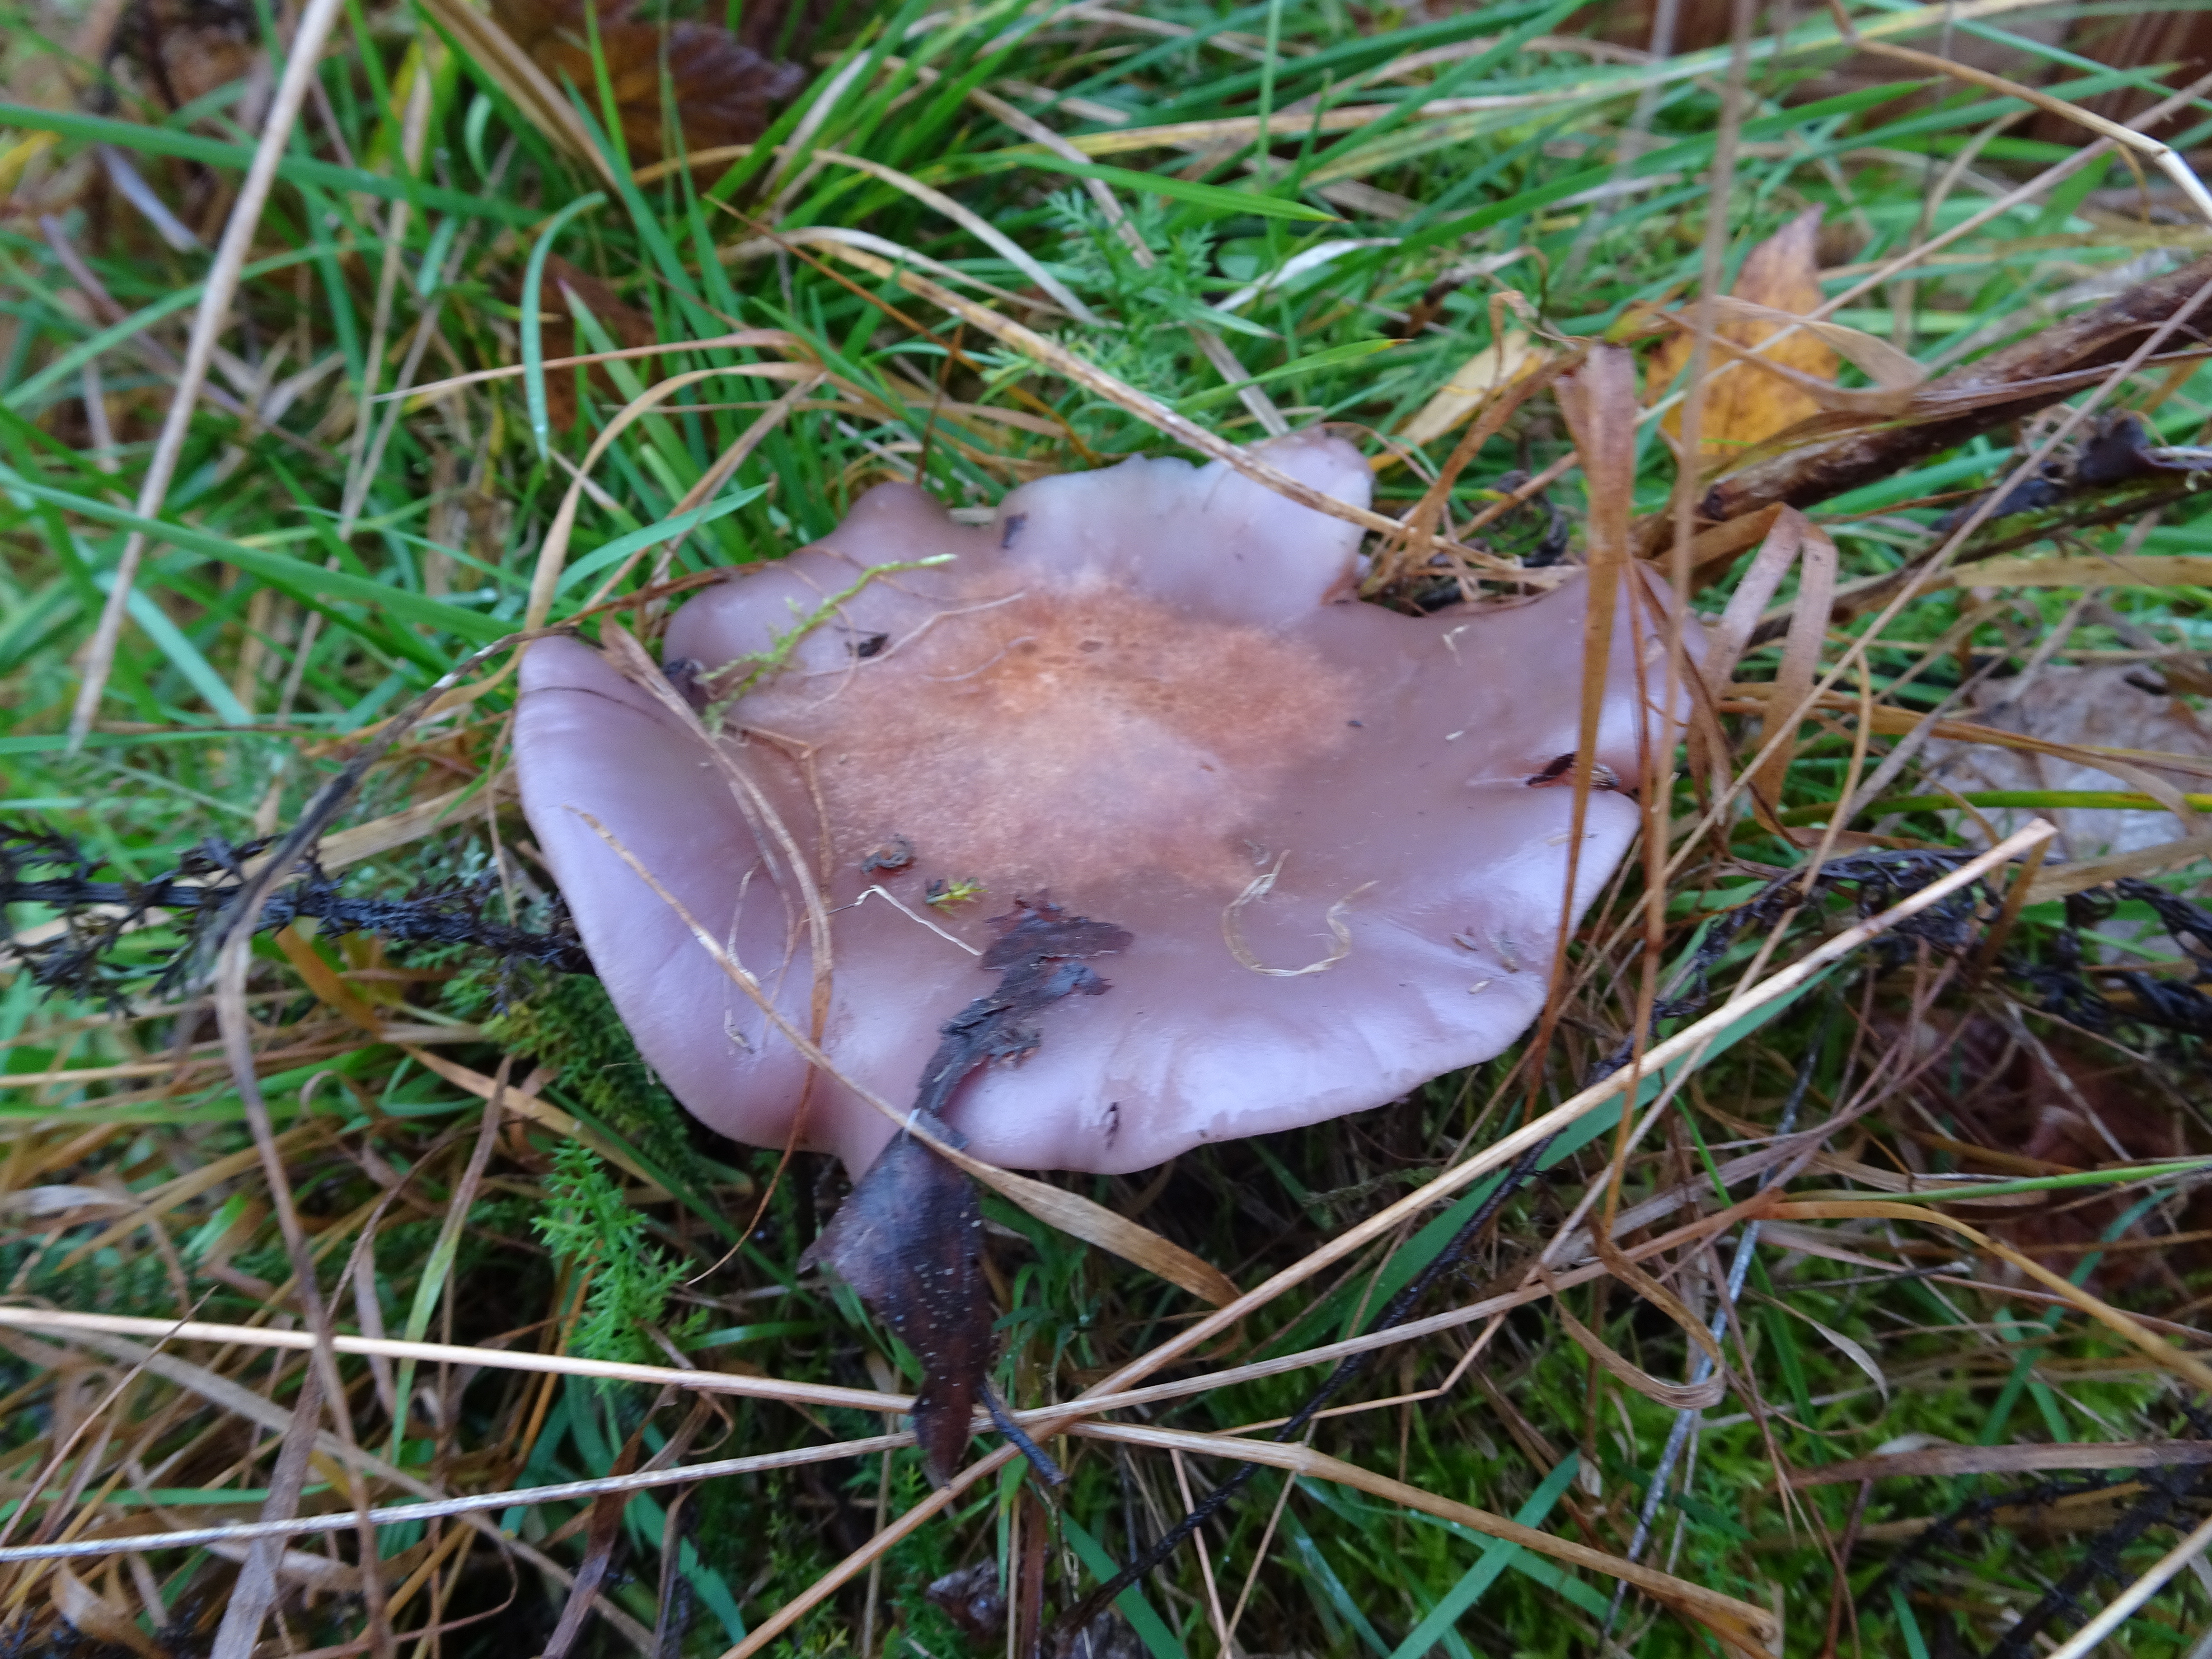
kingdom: Fungi
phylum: Basidiomycota
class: Agaricomycetes
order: Agaricales
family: Tricholomataceae
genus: Lepista
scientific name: Lepista nuda
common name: Wood blewit
